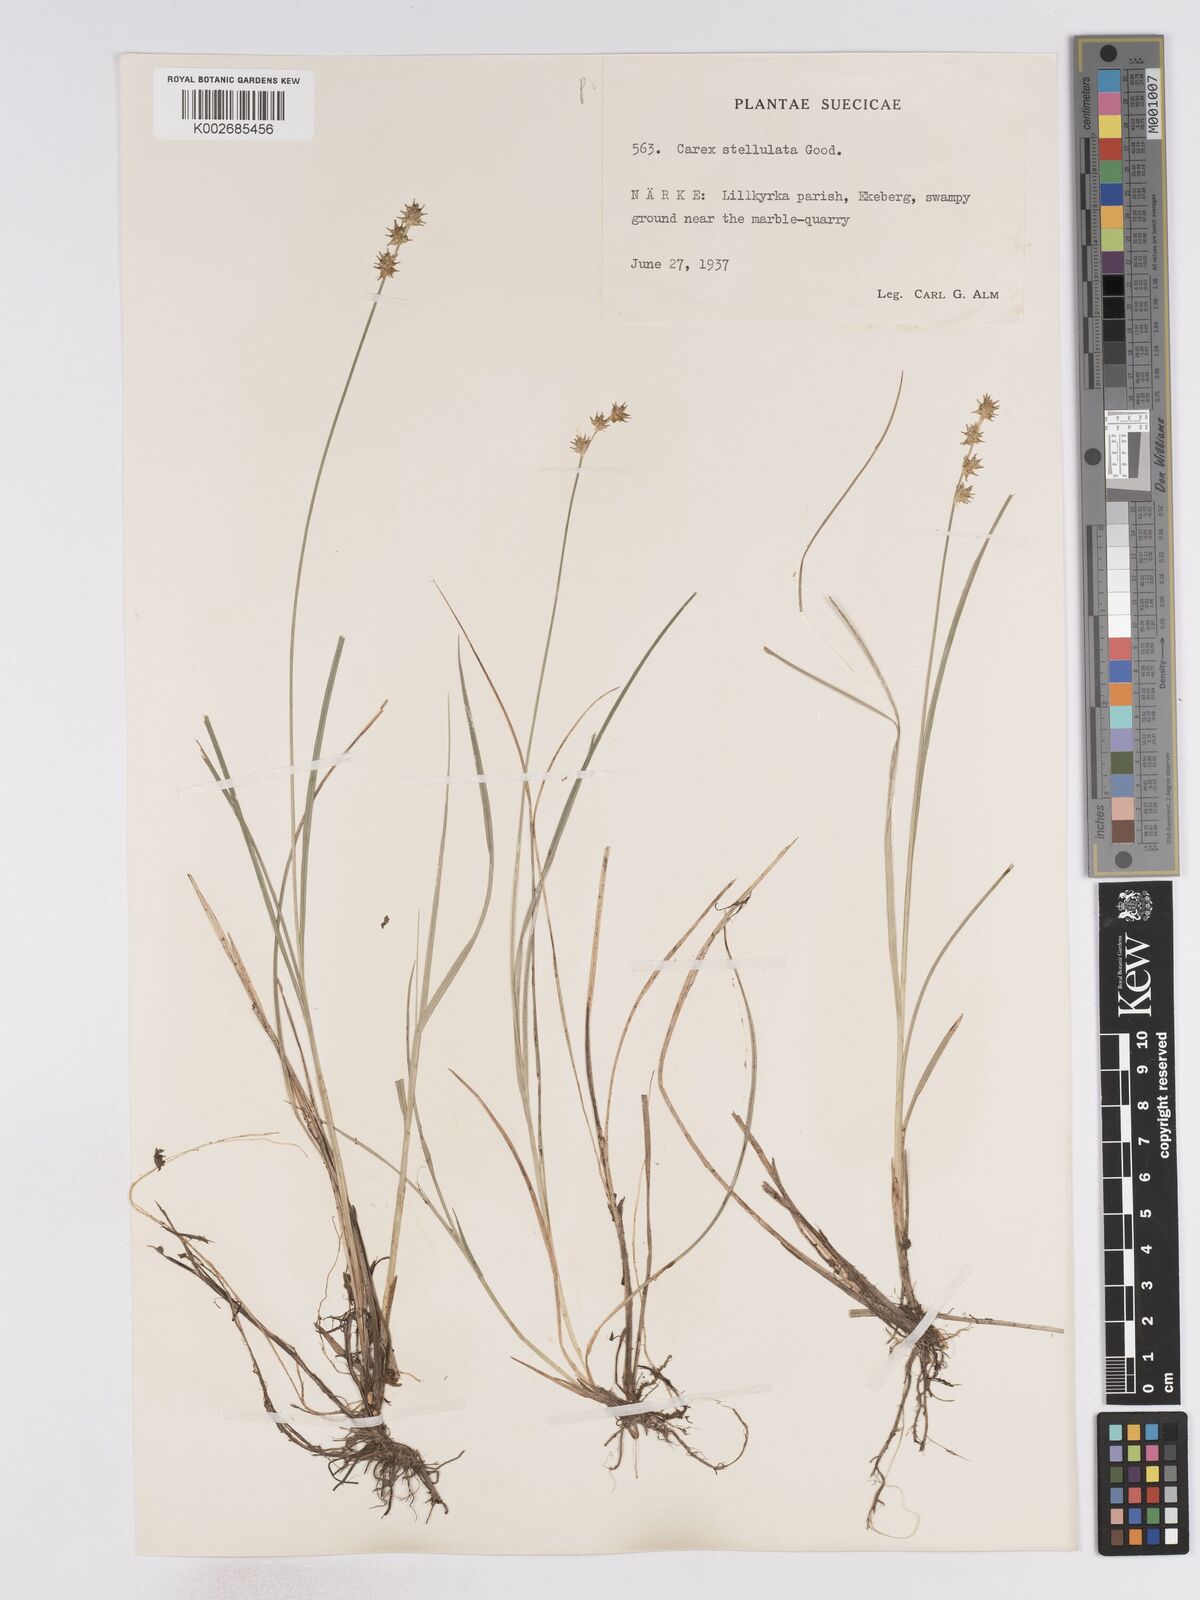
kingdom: Plantae
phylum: Tracheophyta
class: Liliopsida
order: Poales
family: Cyperaceae
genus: Carex
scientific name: Carex echinata
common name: Star sedge
